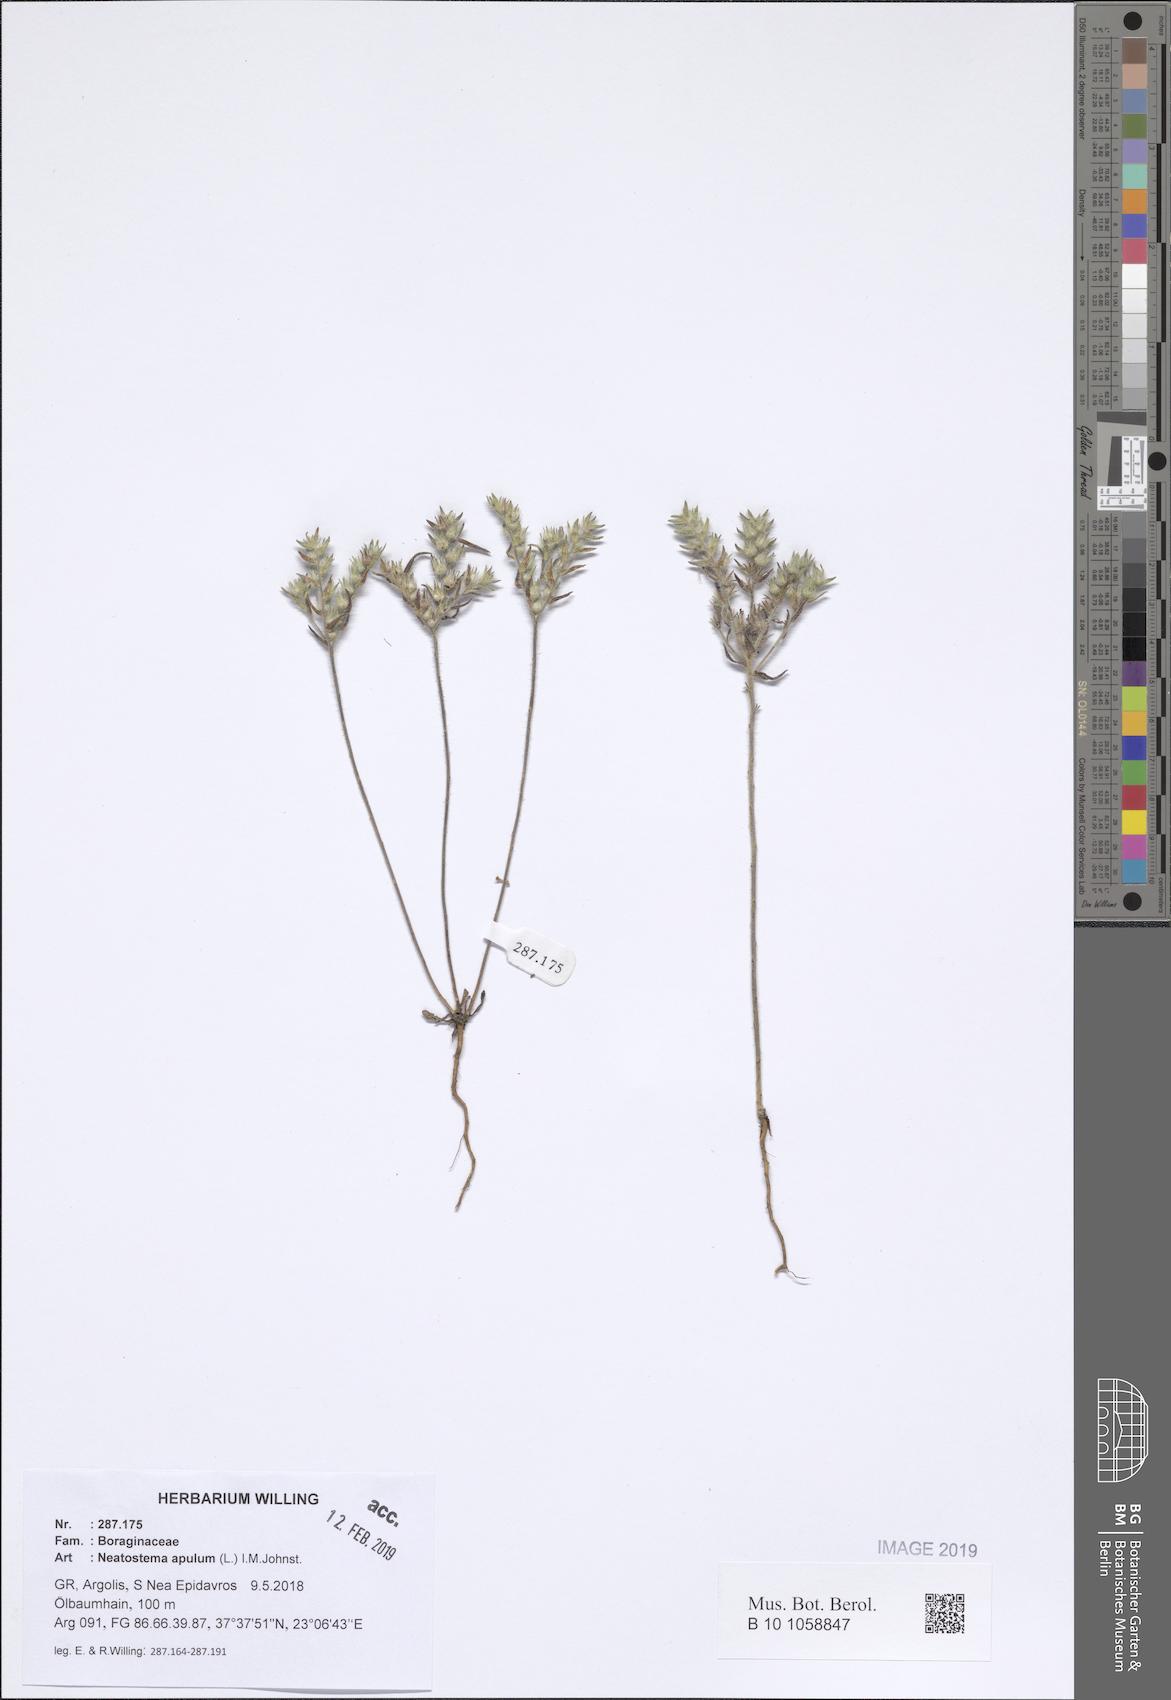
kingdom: Plantae
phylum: Tracheophyta
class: Magnoliopsida
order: Boraginales
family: Boraginaceae
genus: Neatostema
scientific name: Neatostema apulum
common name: Hairy sheepweed
